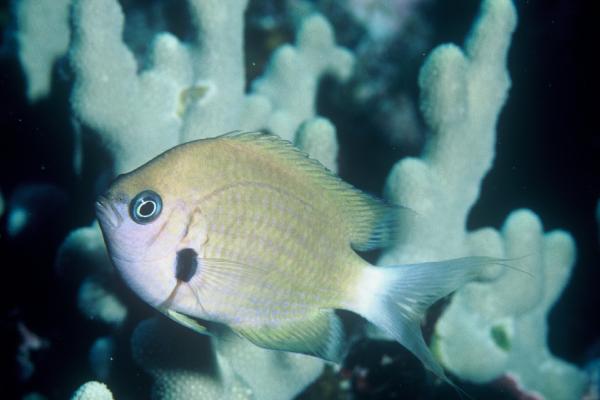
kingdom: Animalia
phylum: Chordata
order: Perciformes
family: Pomacentridae
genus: Chromis
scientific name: Chromis agilis
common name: Bronze reef chromis
